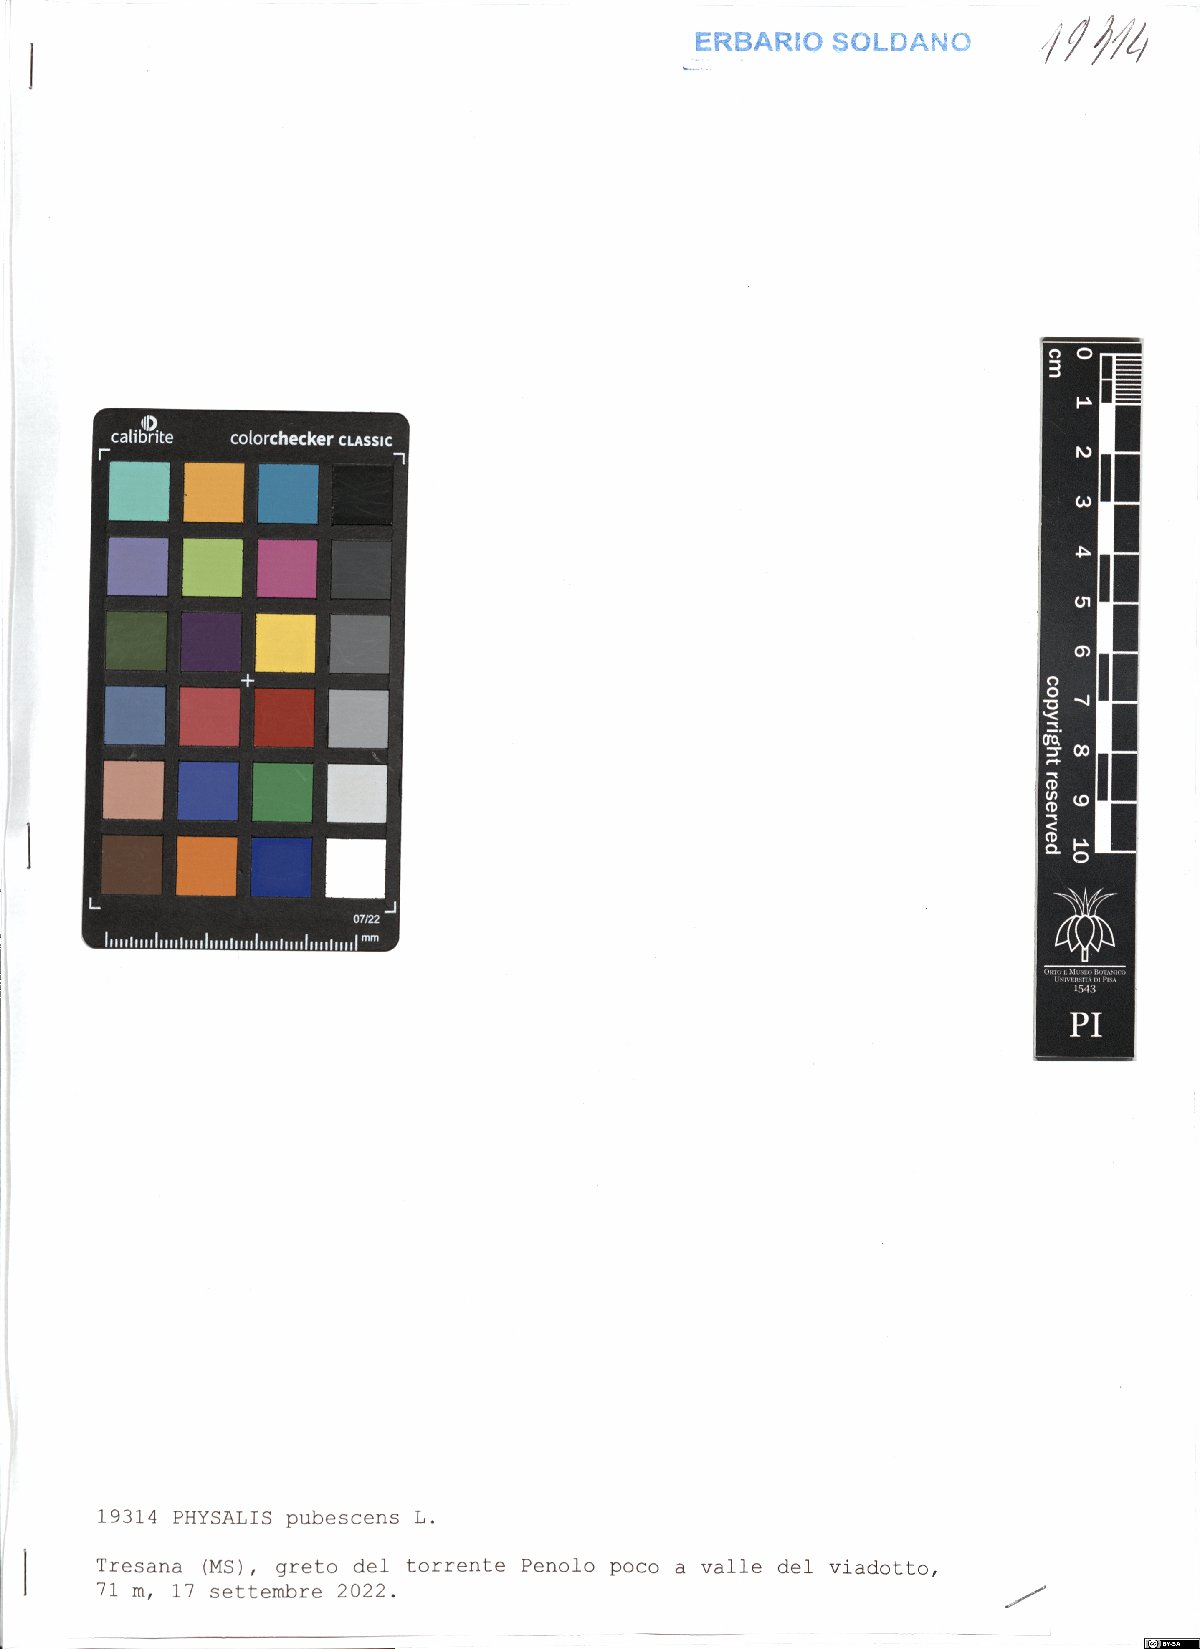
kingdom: Plantae
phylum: Tracheophyta
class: Magnoliopsida
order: Solanales
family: Solanaceae
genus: Physalis
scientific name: Physalis pubescens
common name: Downy ground-cherry
